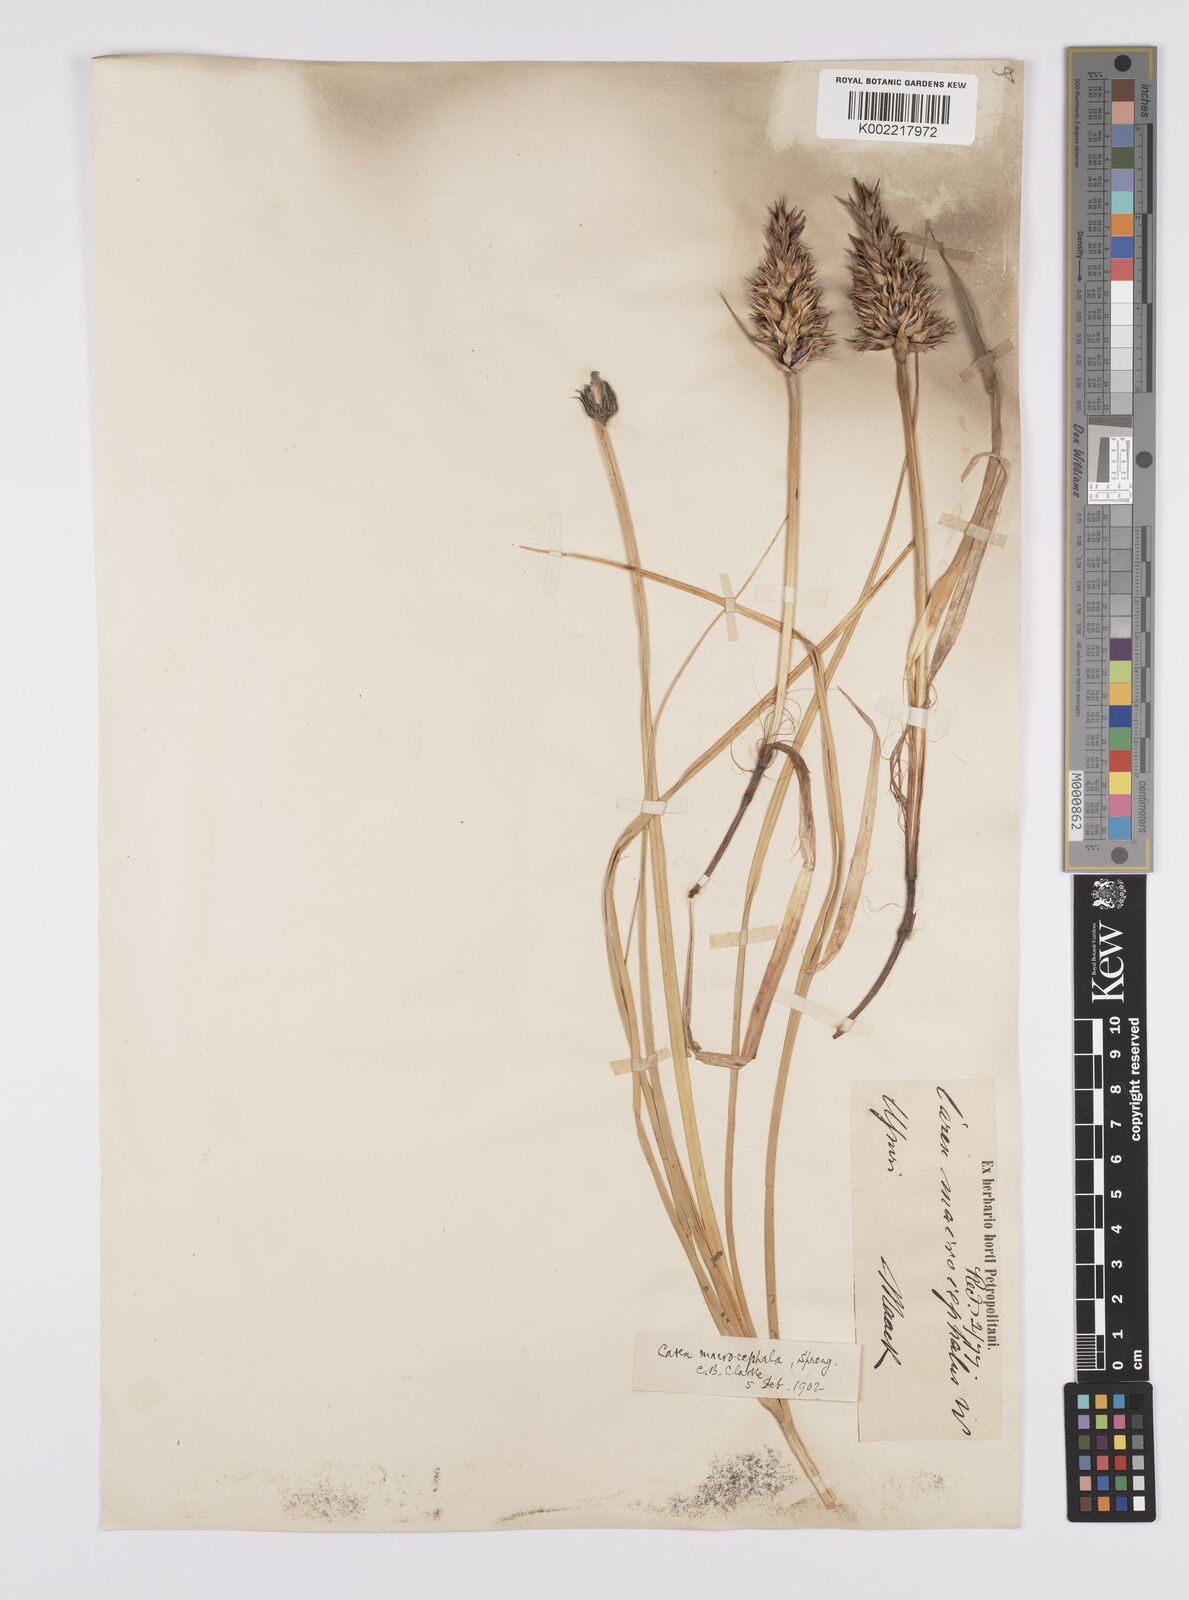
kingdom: Plantae
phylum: Tracheophyta
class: Liliopsida
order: Poales
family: Cyperaceae
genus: Carex
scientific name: Carex macrocephala
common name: Large-head sedge
